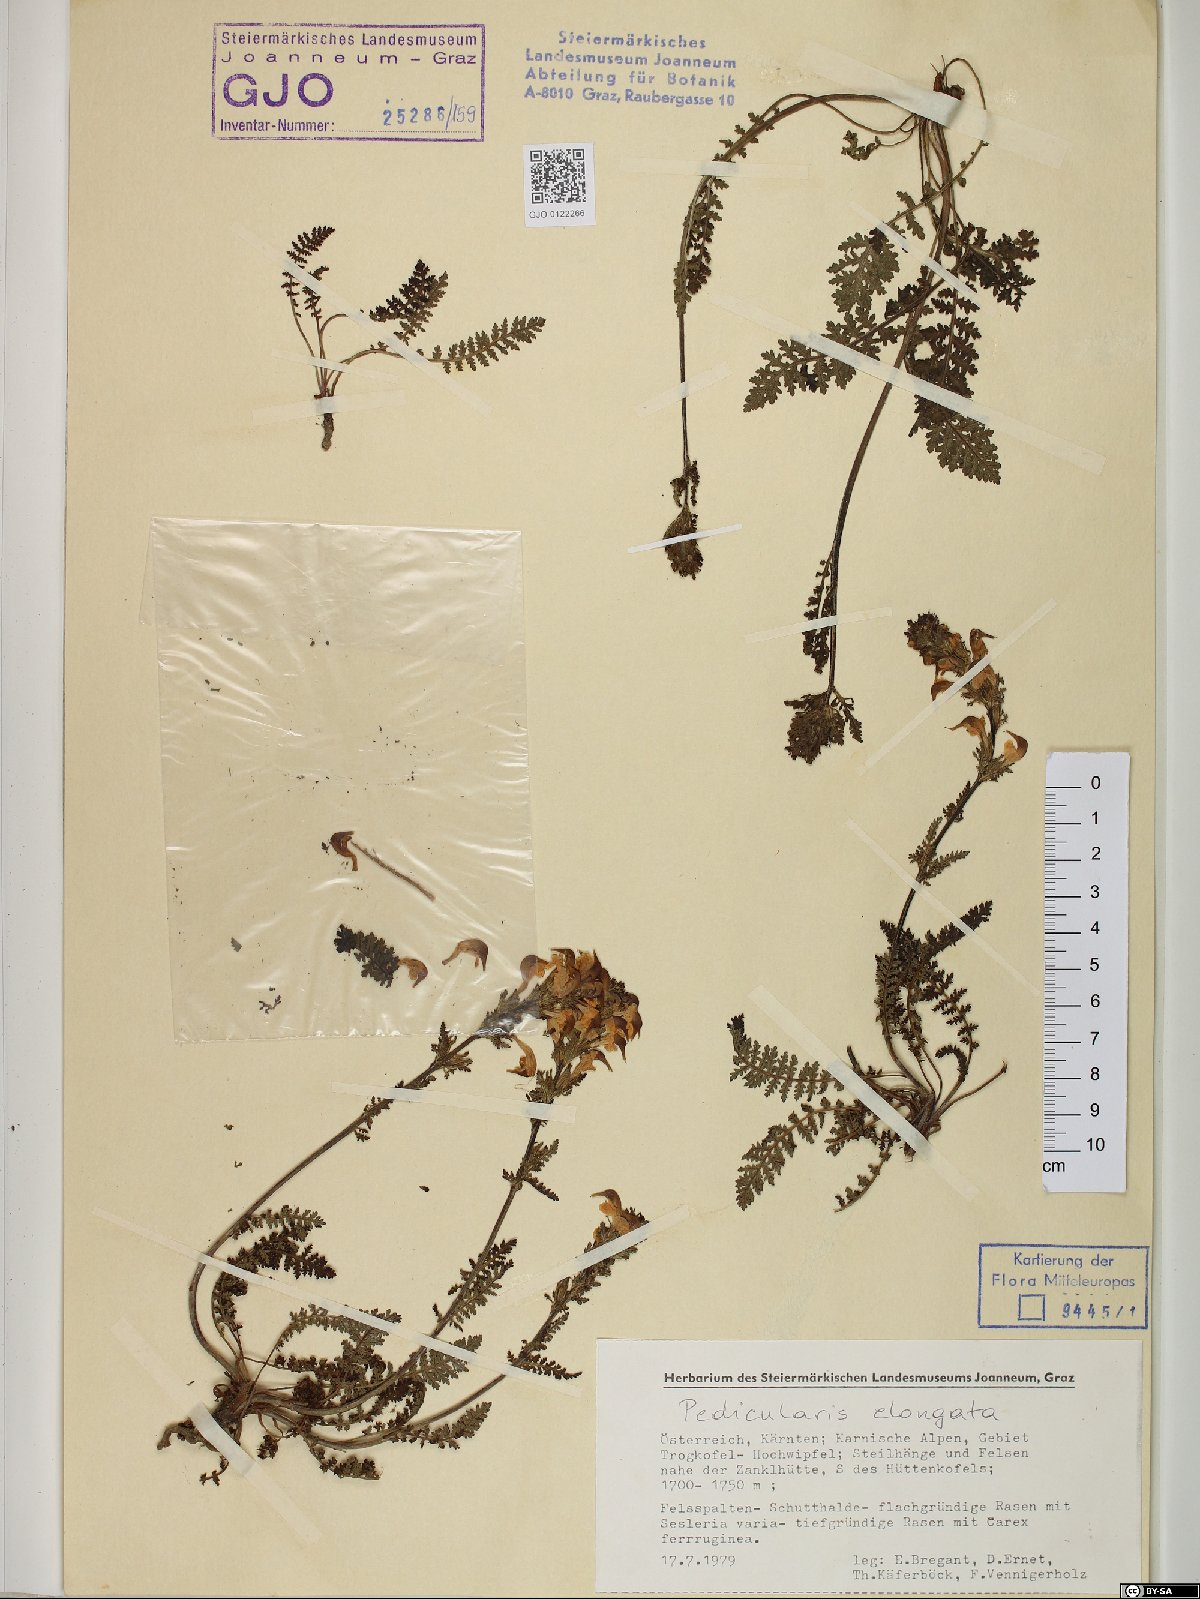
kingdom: Plantae
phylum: Tracheophyta
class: Magnoliopsida
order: Lamiales
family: Orobanchaceae
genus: Pedicularis
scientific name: Pedicularis elongata
